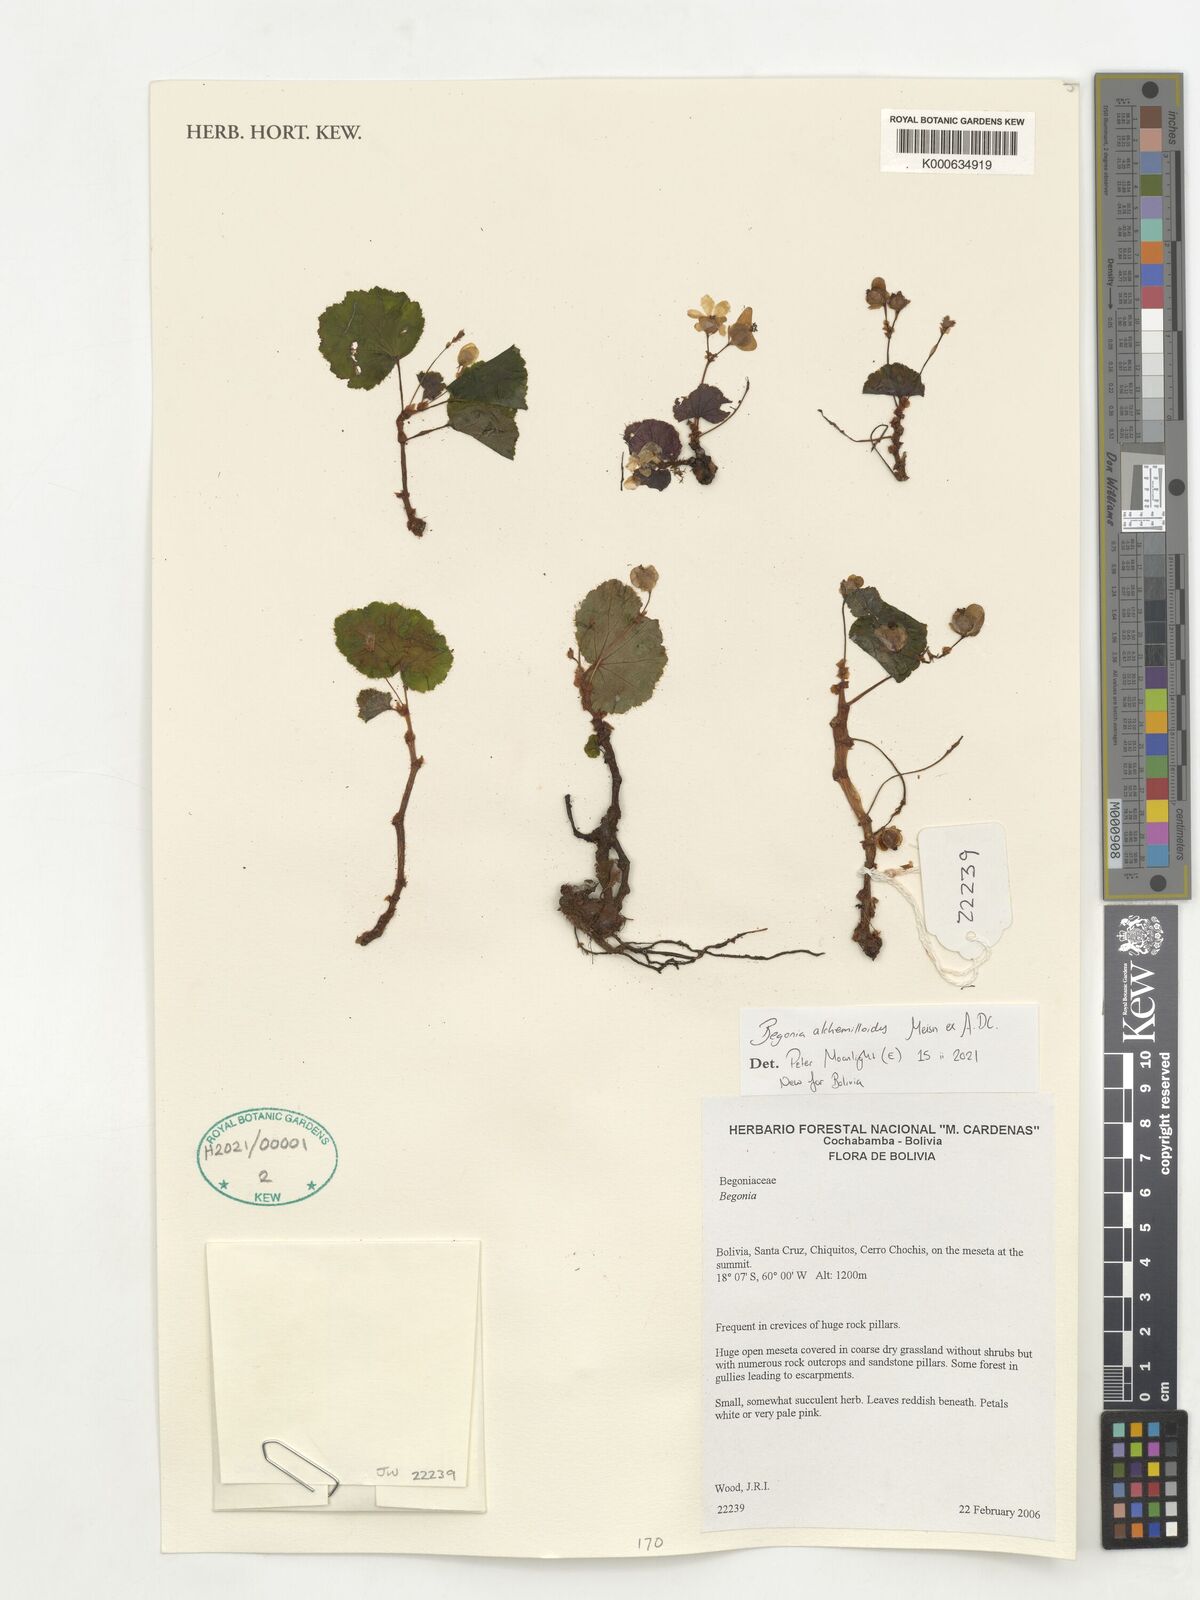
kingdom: Plantae
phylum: Tracheophyta
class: Magnoliopsida
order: Cucurbitales
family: Begoniaceae
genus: Begonia
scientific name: Begonia alchemilloides
